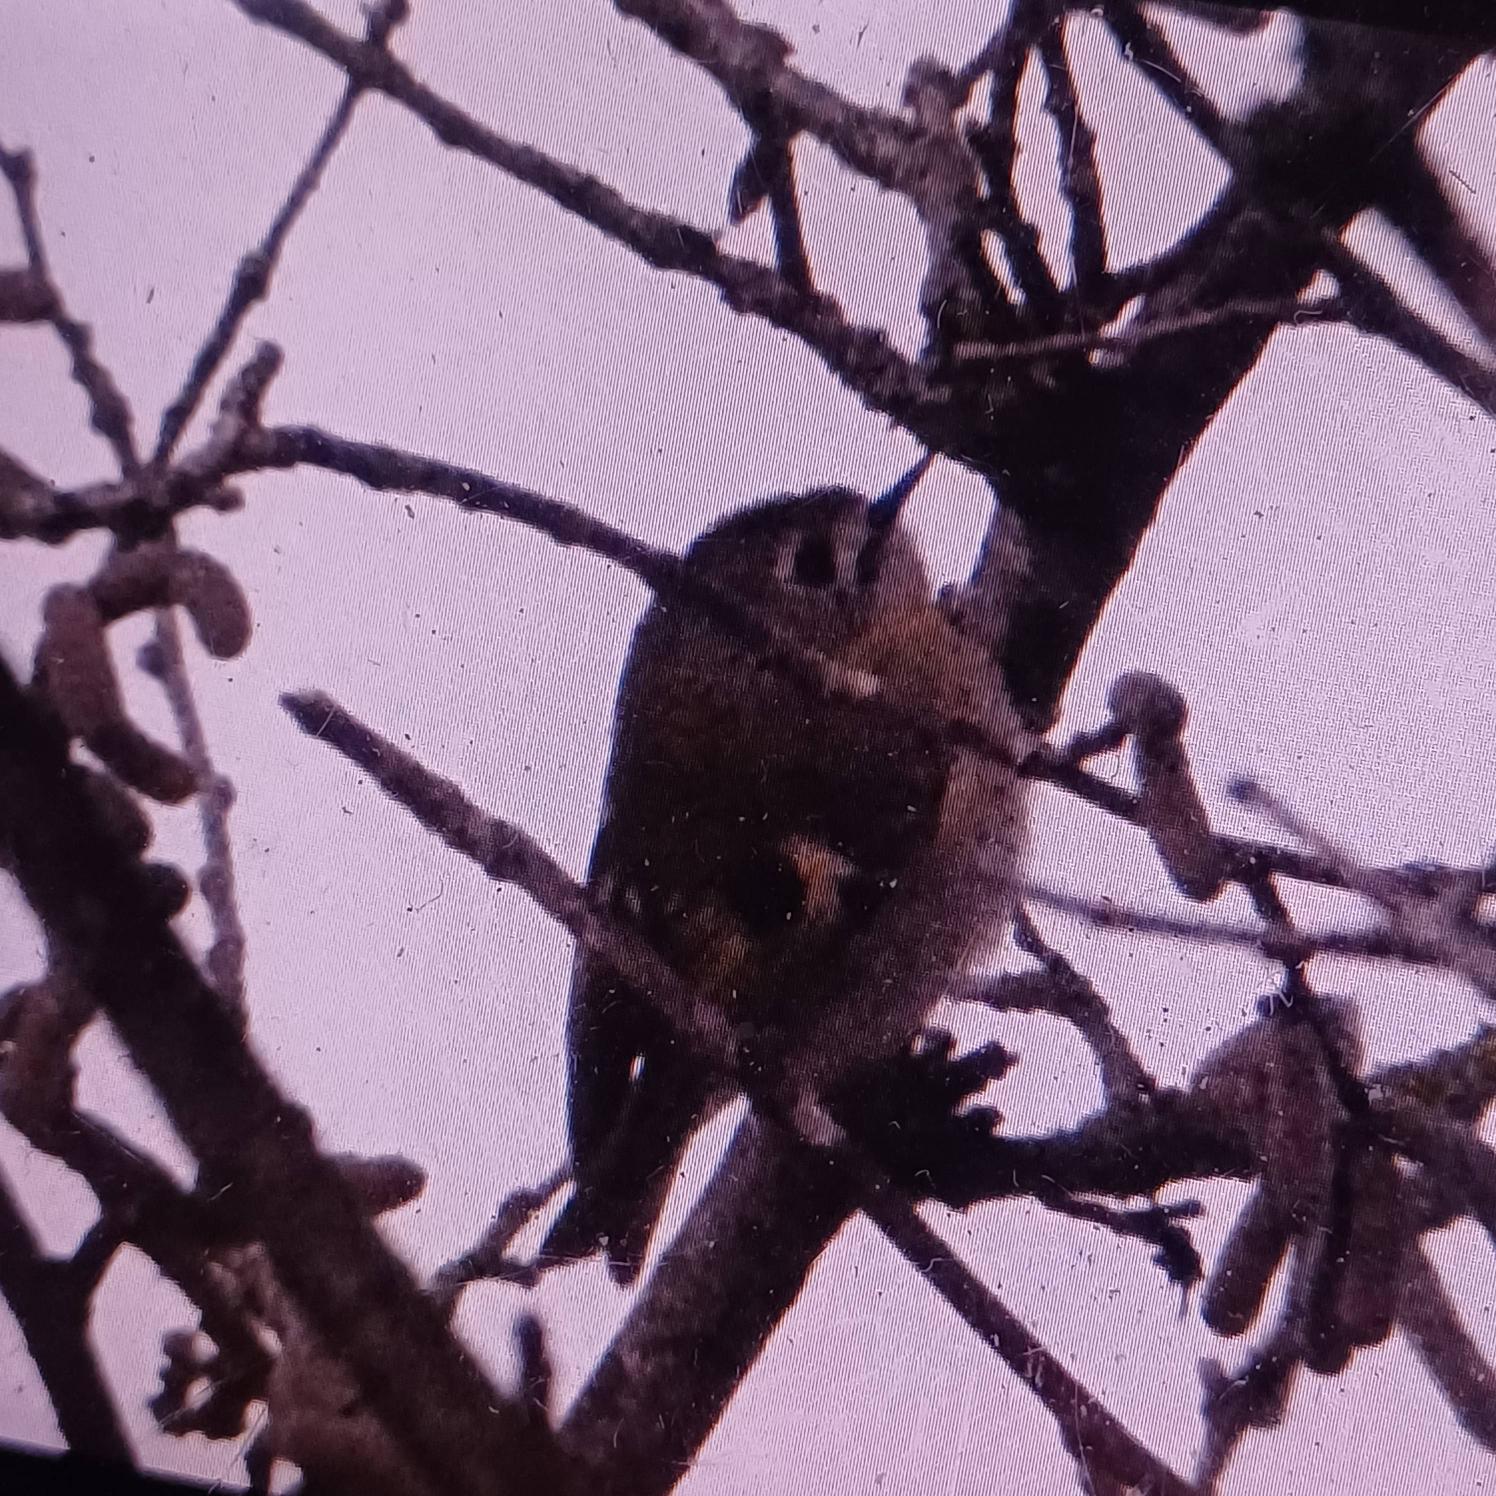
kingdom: Animalia
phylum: Chordata
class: Aves
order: Passeriformes
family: Regulidae
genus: Regulus
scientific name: Regulus regulus
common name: Fuglekonge
